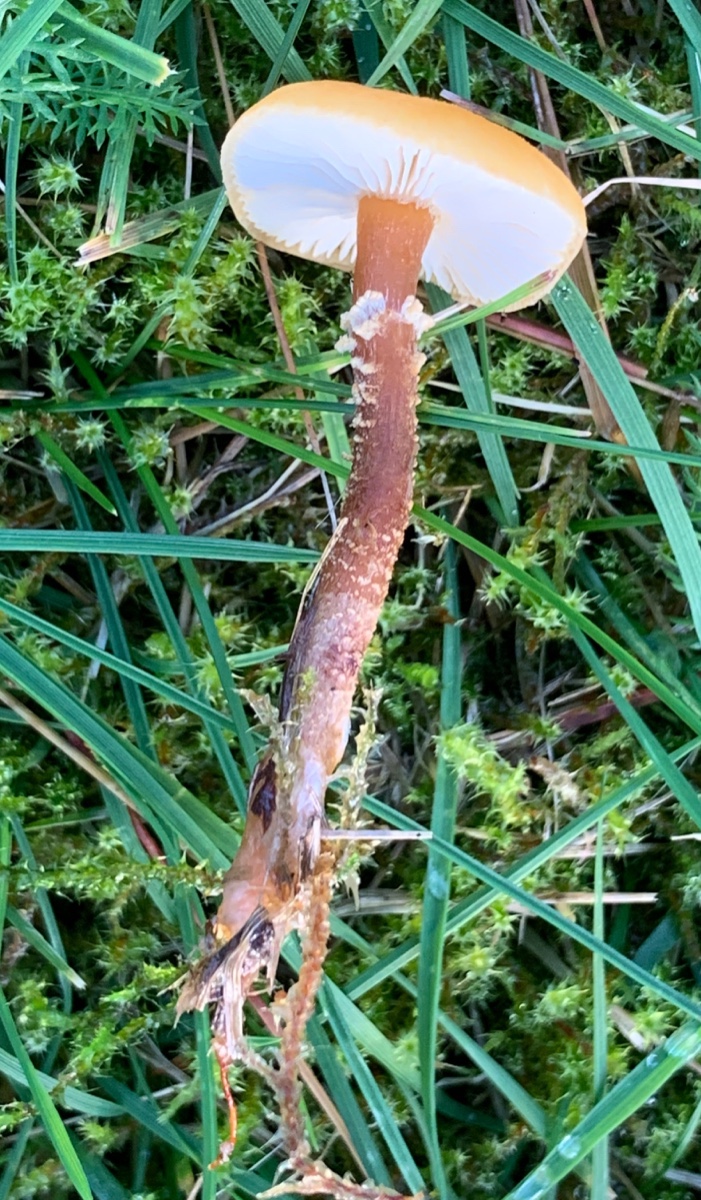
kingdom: Fungi
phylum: Basidiomycota
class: Agaricomycetes
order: Agaricales
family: Tricholomataceae
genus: Cystoderma
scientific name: Cystoderma amianthinum
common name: okkergul grynhat
